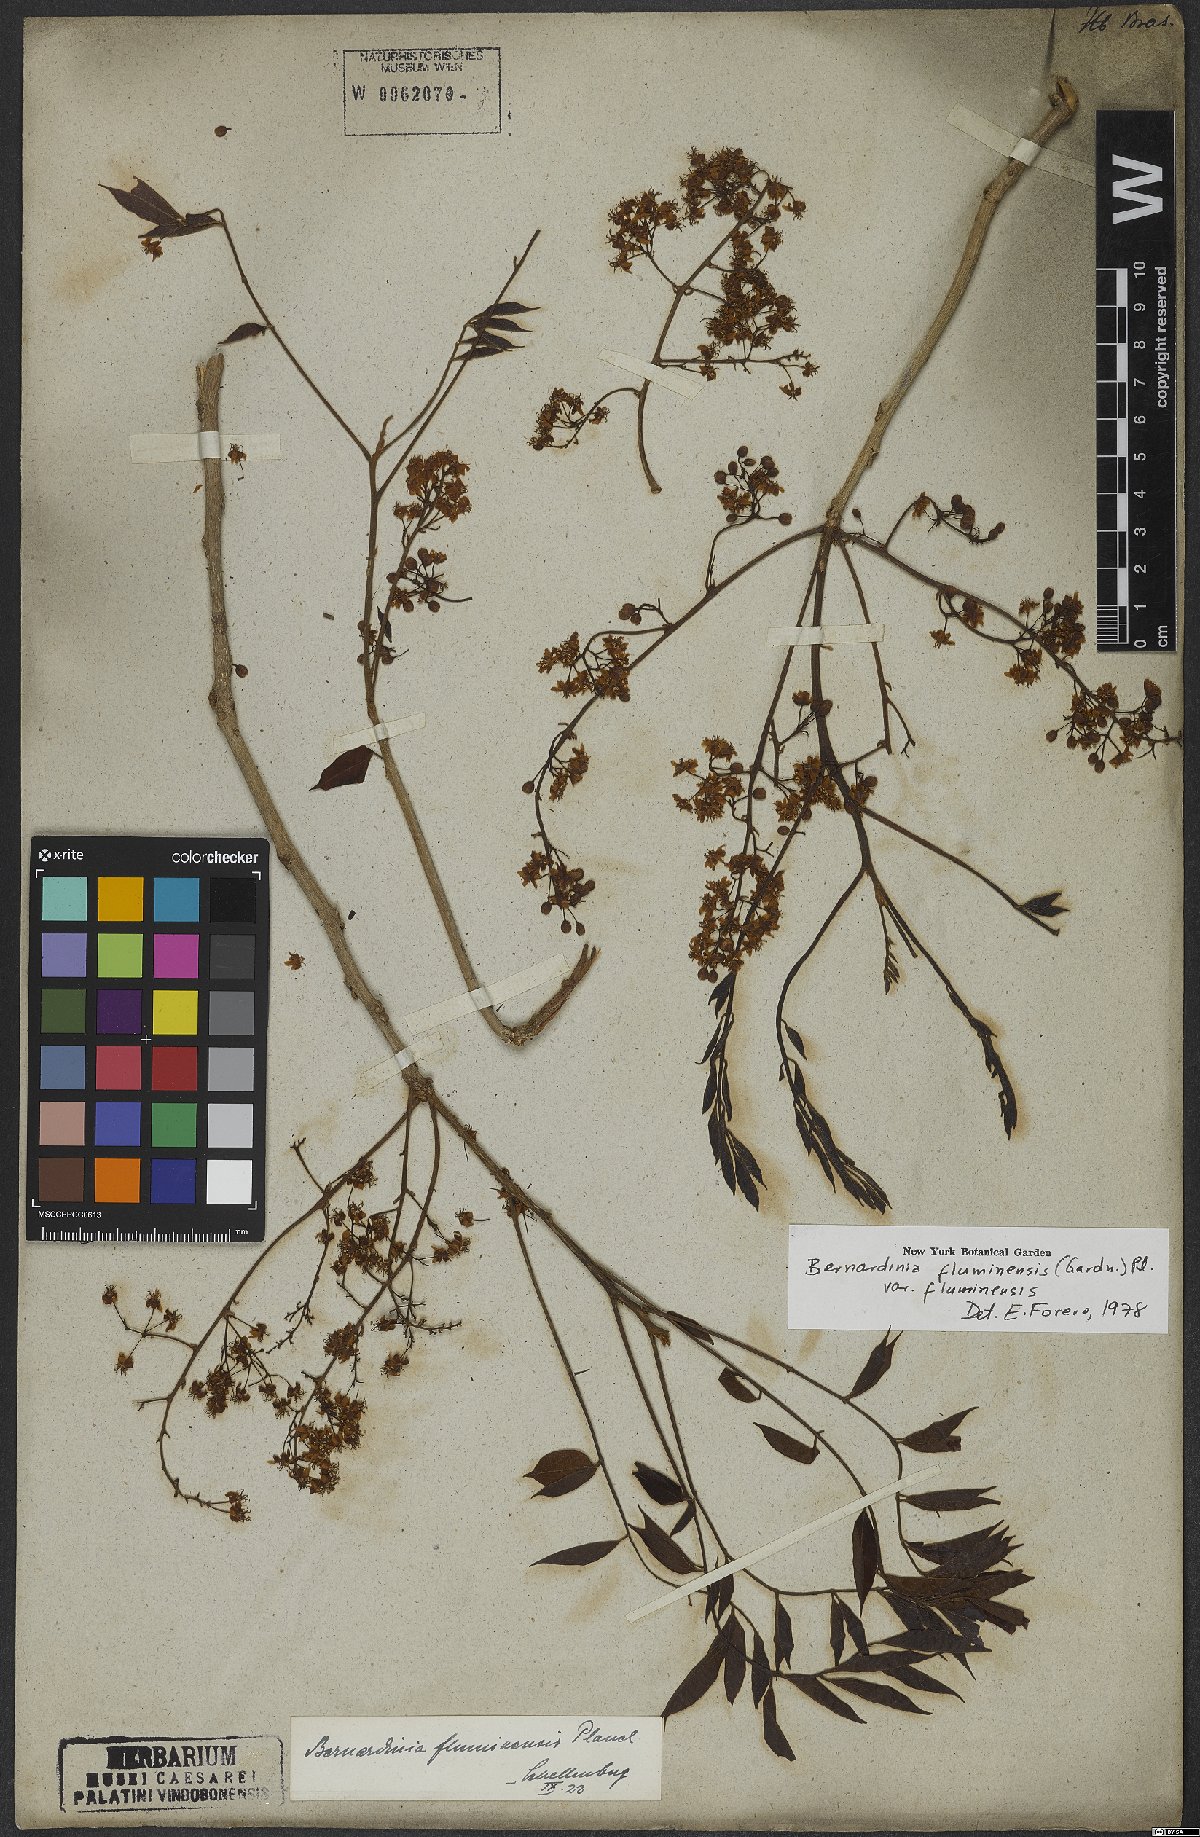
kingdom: Plantae
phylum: Tracheophyta
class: Magnoliopsida
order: Oxalidales
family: Connaraceae
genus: Rourea
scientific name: Rourea fluminensis
